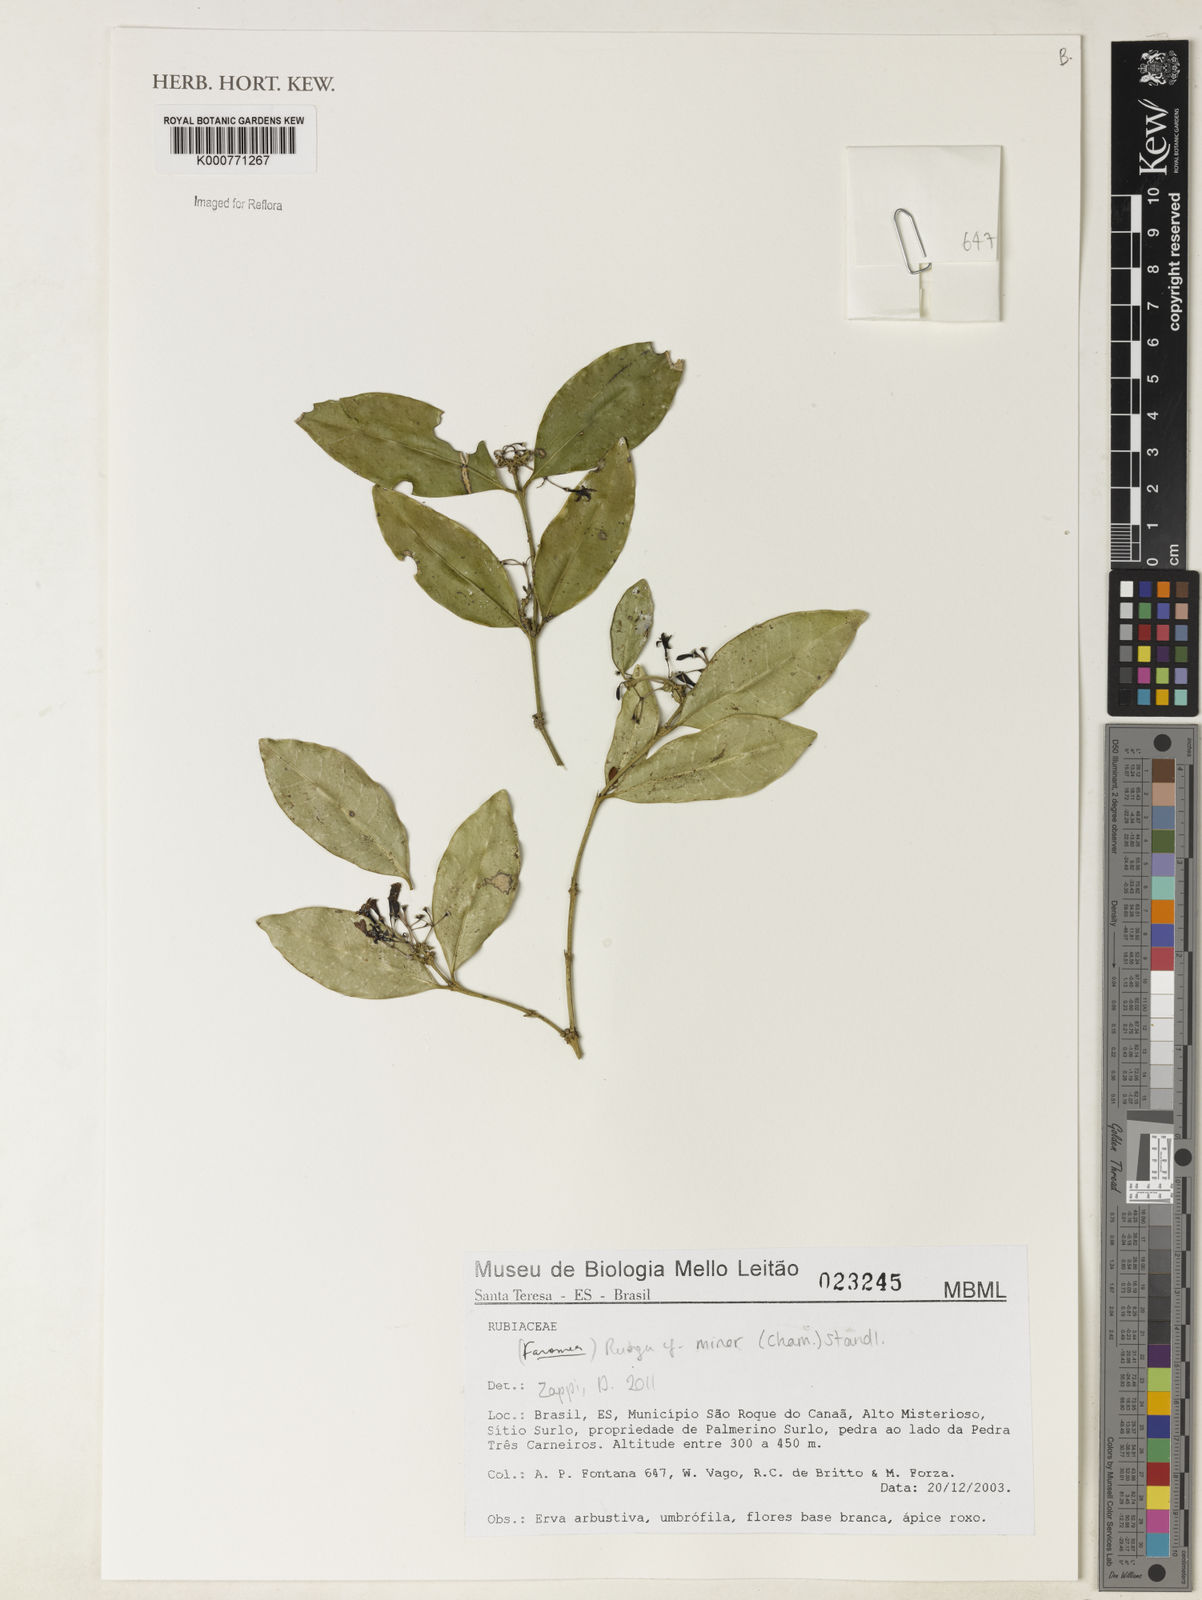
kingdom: Plantae
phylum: Tracheophyta
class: Magnoliopsida
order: Gentianales
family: Rubiaceae
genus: Rudgea
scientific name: Rudgea minor
